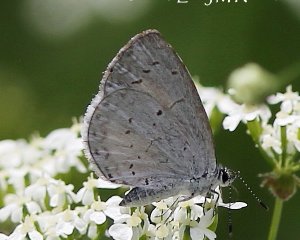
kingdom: Animalia
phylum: Arthropoda
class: Insecta
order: Lepidoptera
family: Lycaenidae
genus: Celastrina
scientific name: Celastrina serotina
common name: Cherry Gall Azure
